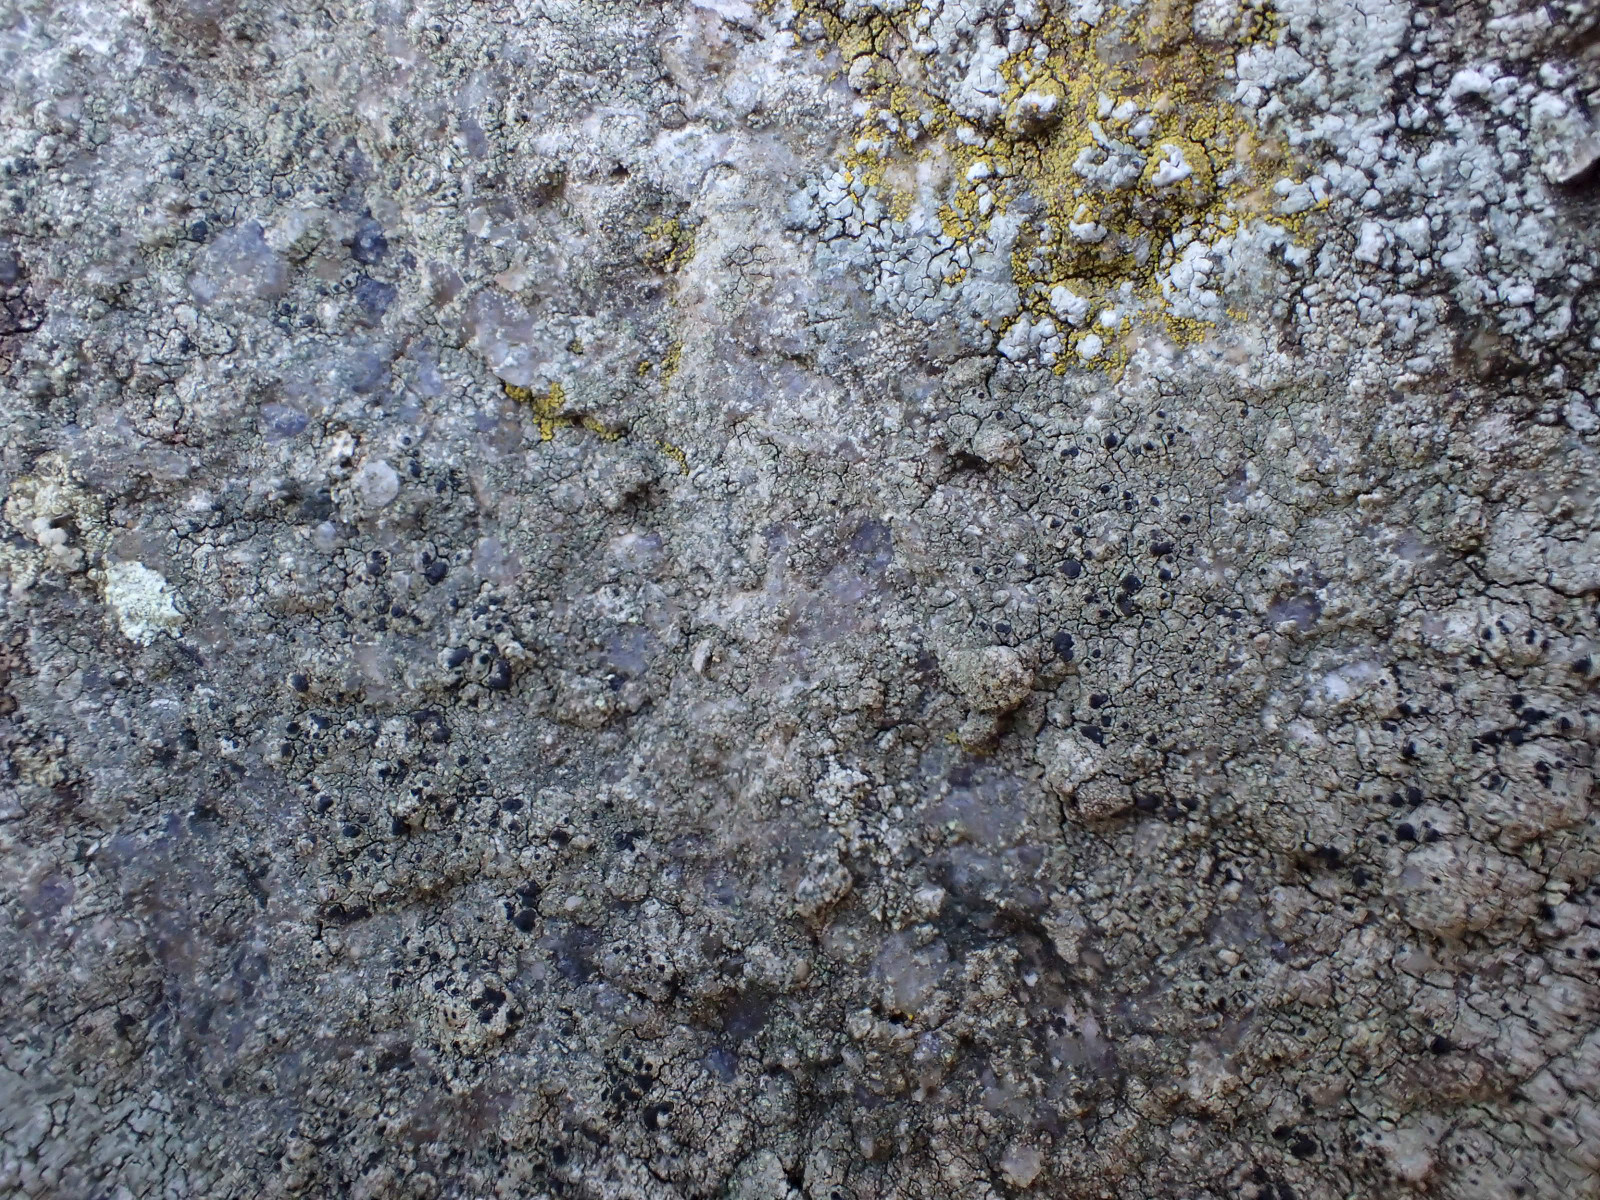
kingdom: Fungi
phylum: Ascomycota
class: Lecanoromycetes
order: Lecanorales
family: Lecanoraceae
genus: Lecidella
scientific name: Lecidella scabra
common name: skurvet skivelav
